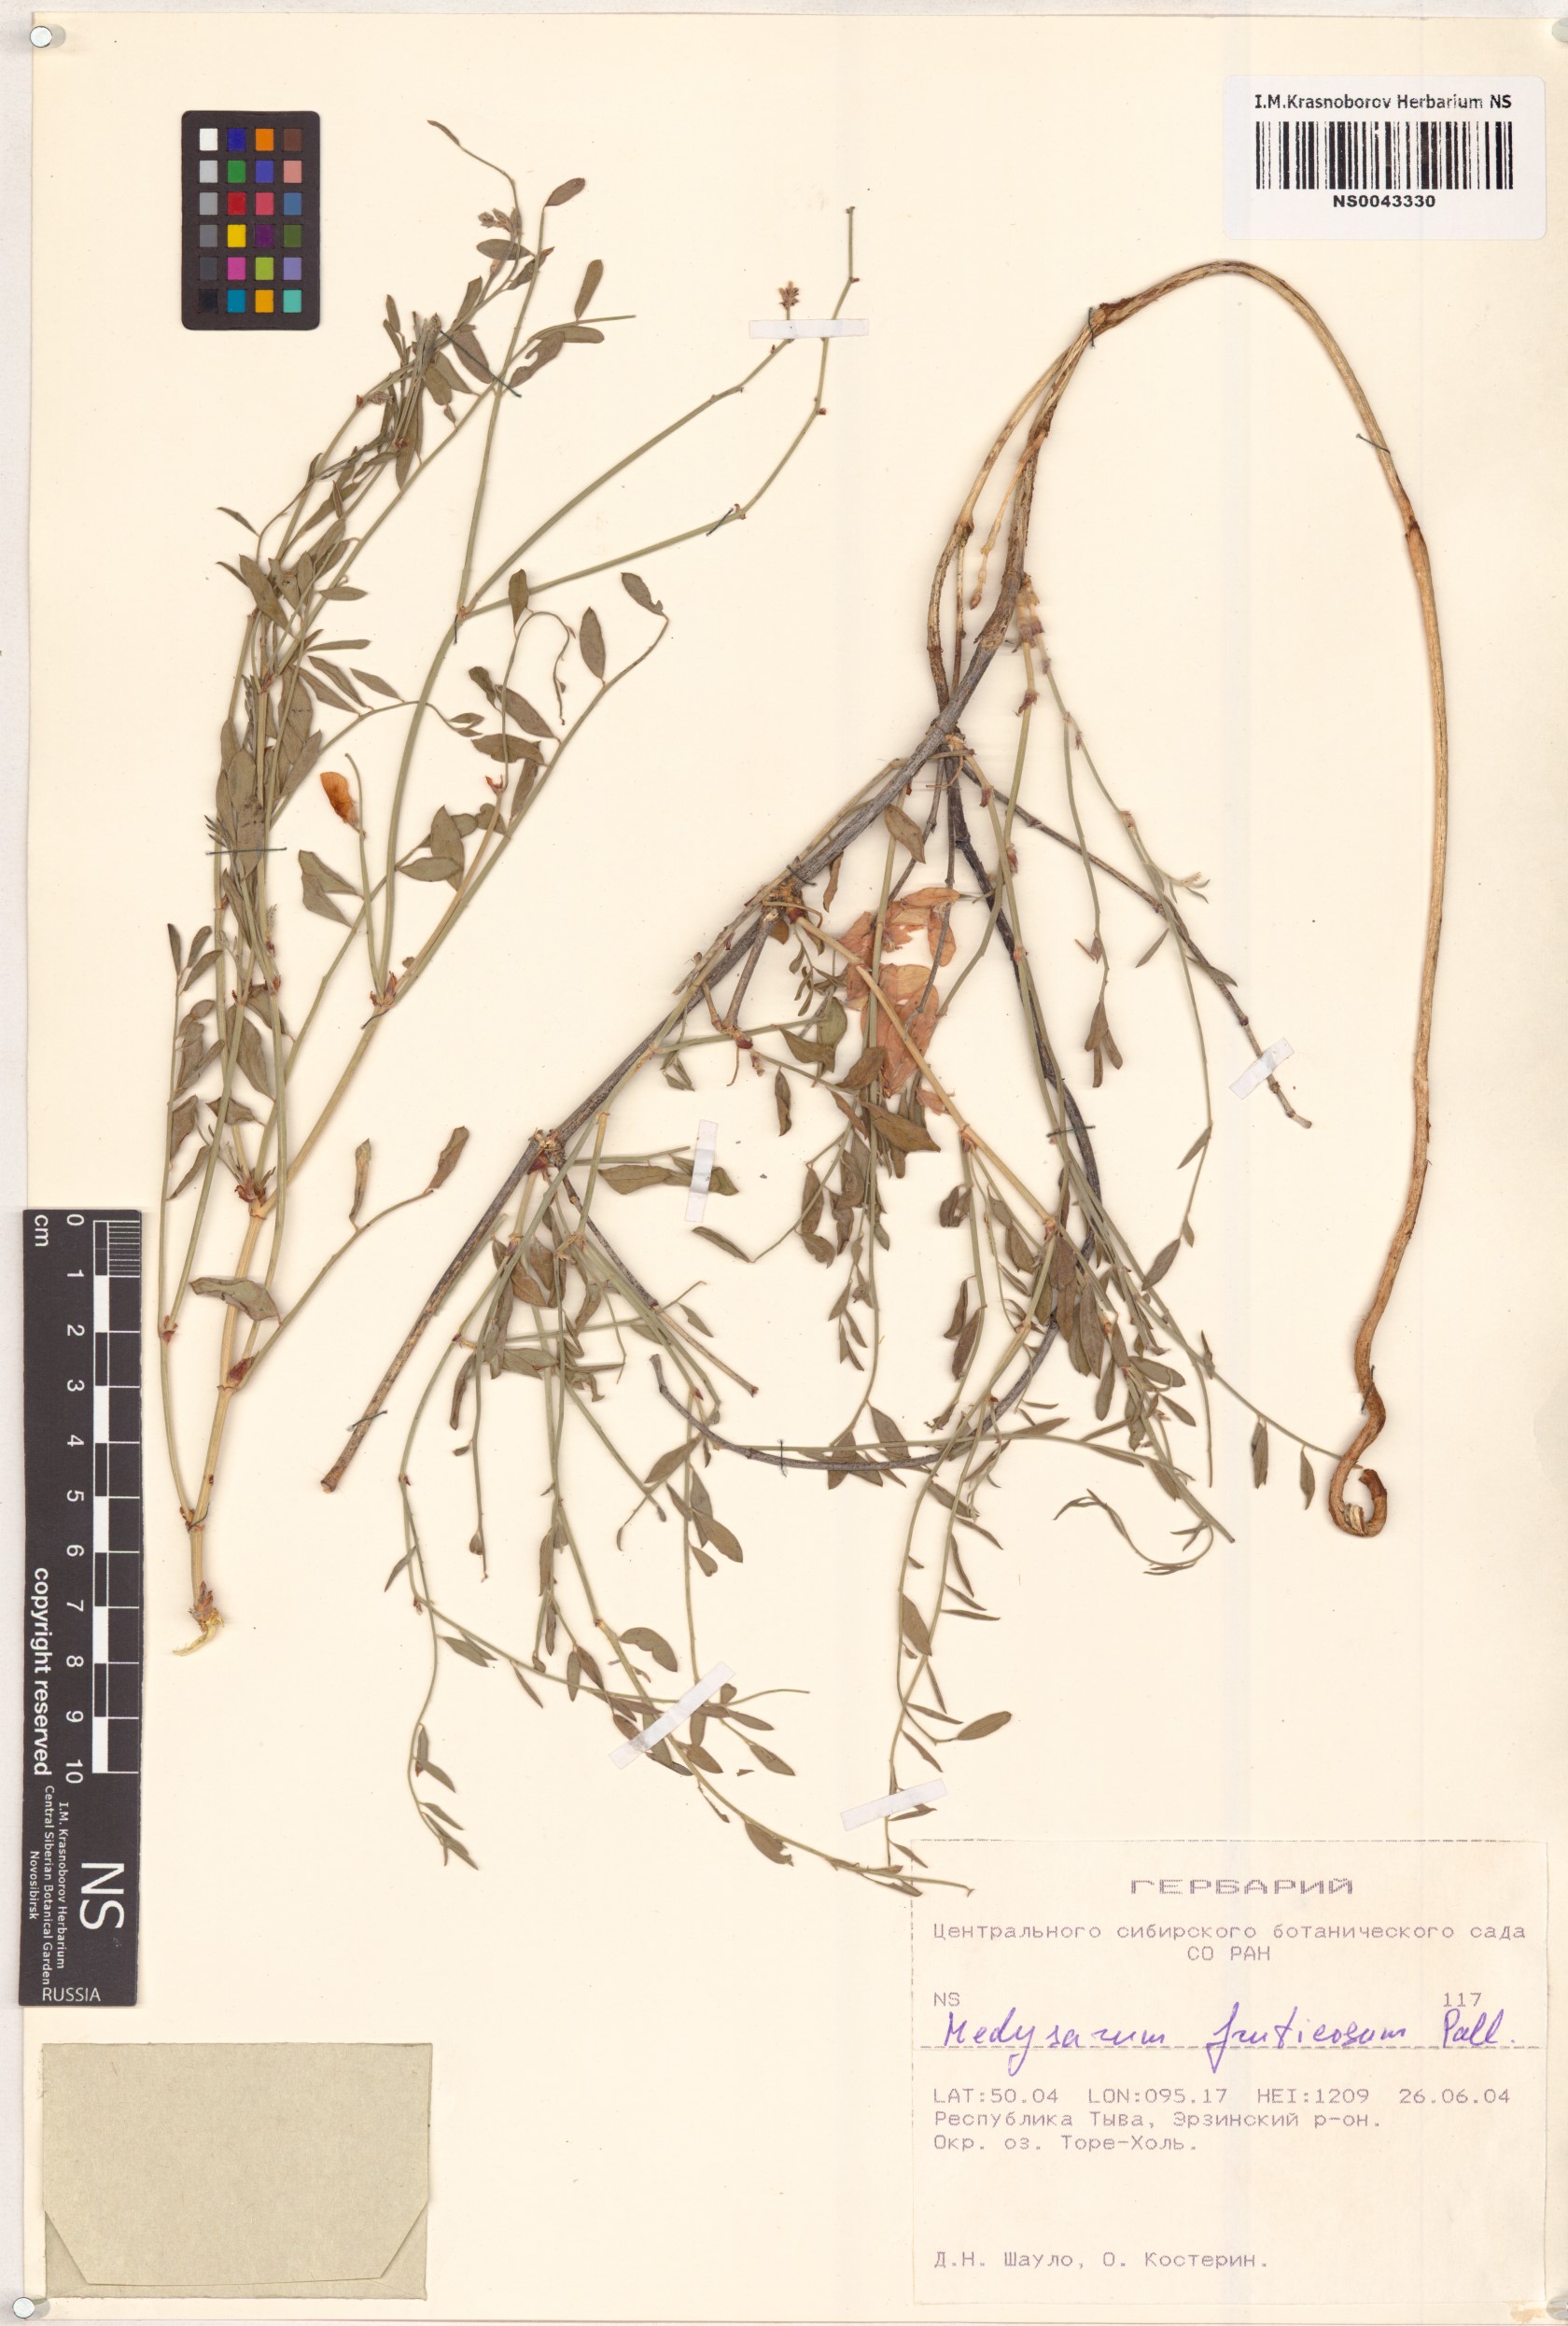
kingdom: Plantae
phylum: Tracheophyta
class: Magnoliopsida
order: Fabales
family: Fabaceae
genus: Corethrodendron
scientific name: Corethrodendron fruticosum
